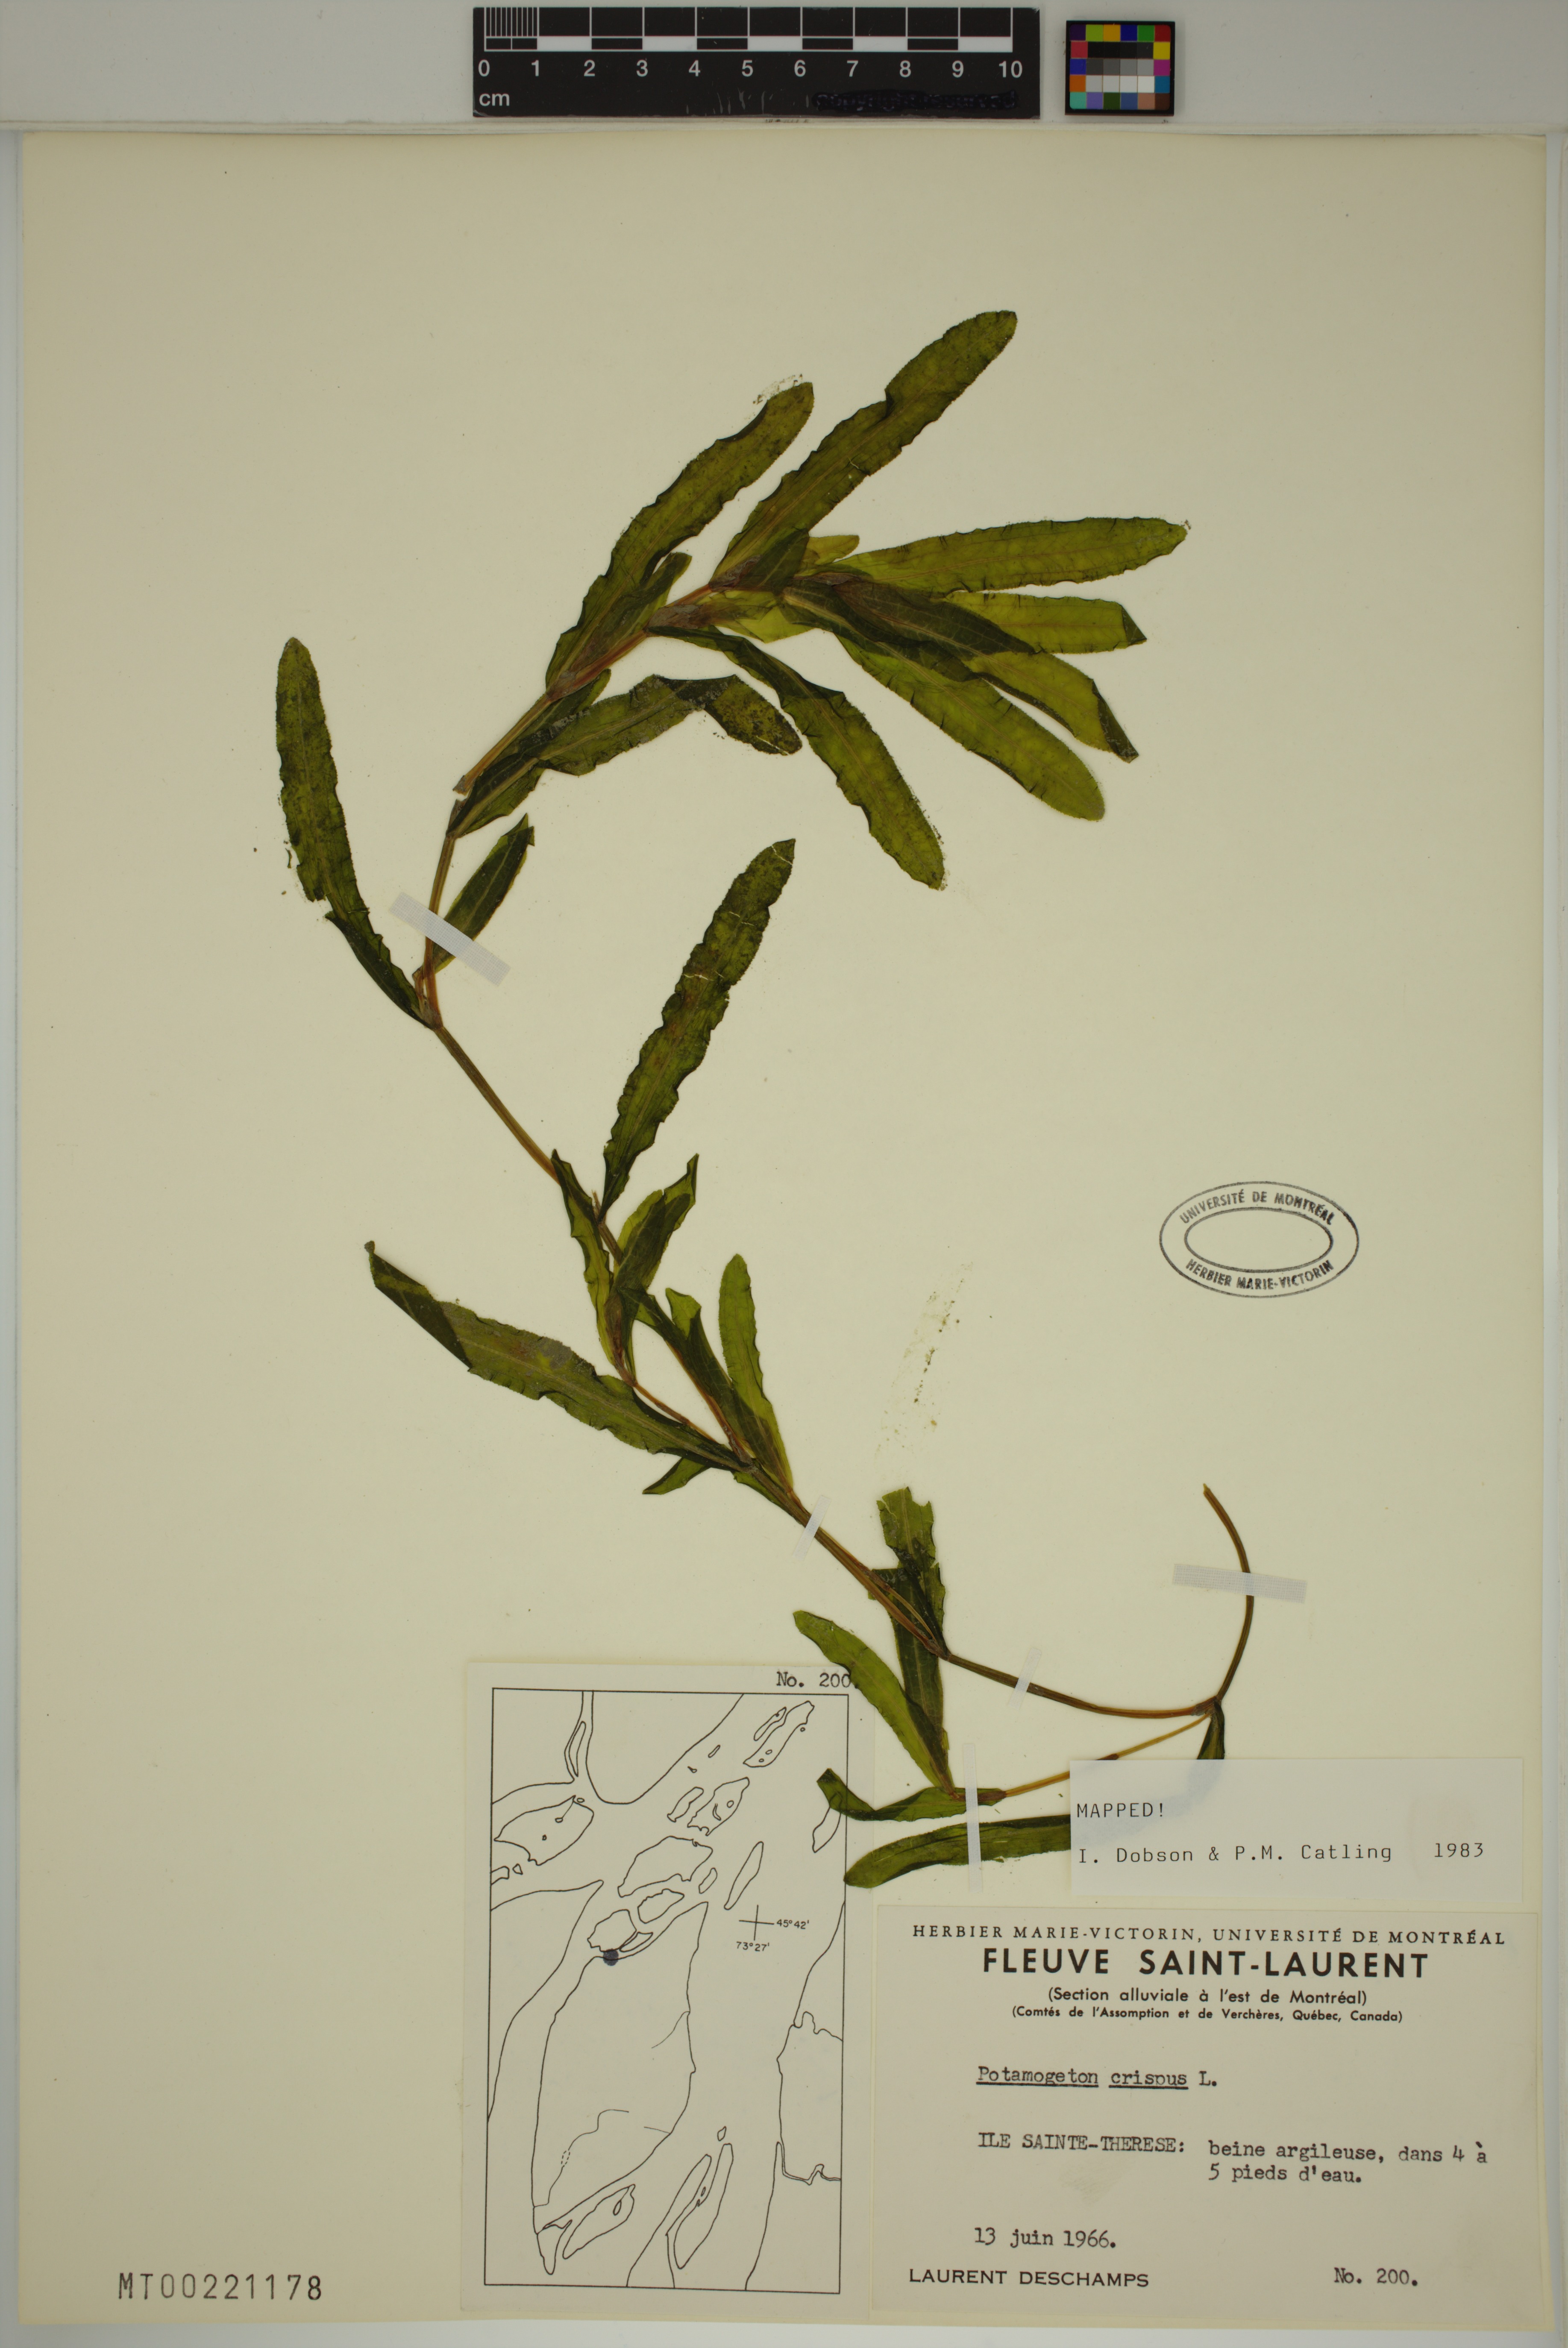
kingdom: Plantae
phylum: Tracheophyta
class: Liliopsida
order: Alismatales
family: Potamogetonaceae
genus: Potamogeton
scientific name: Potamogeton crispus
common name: Curled pondweed
